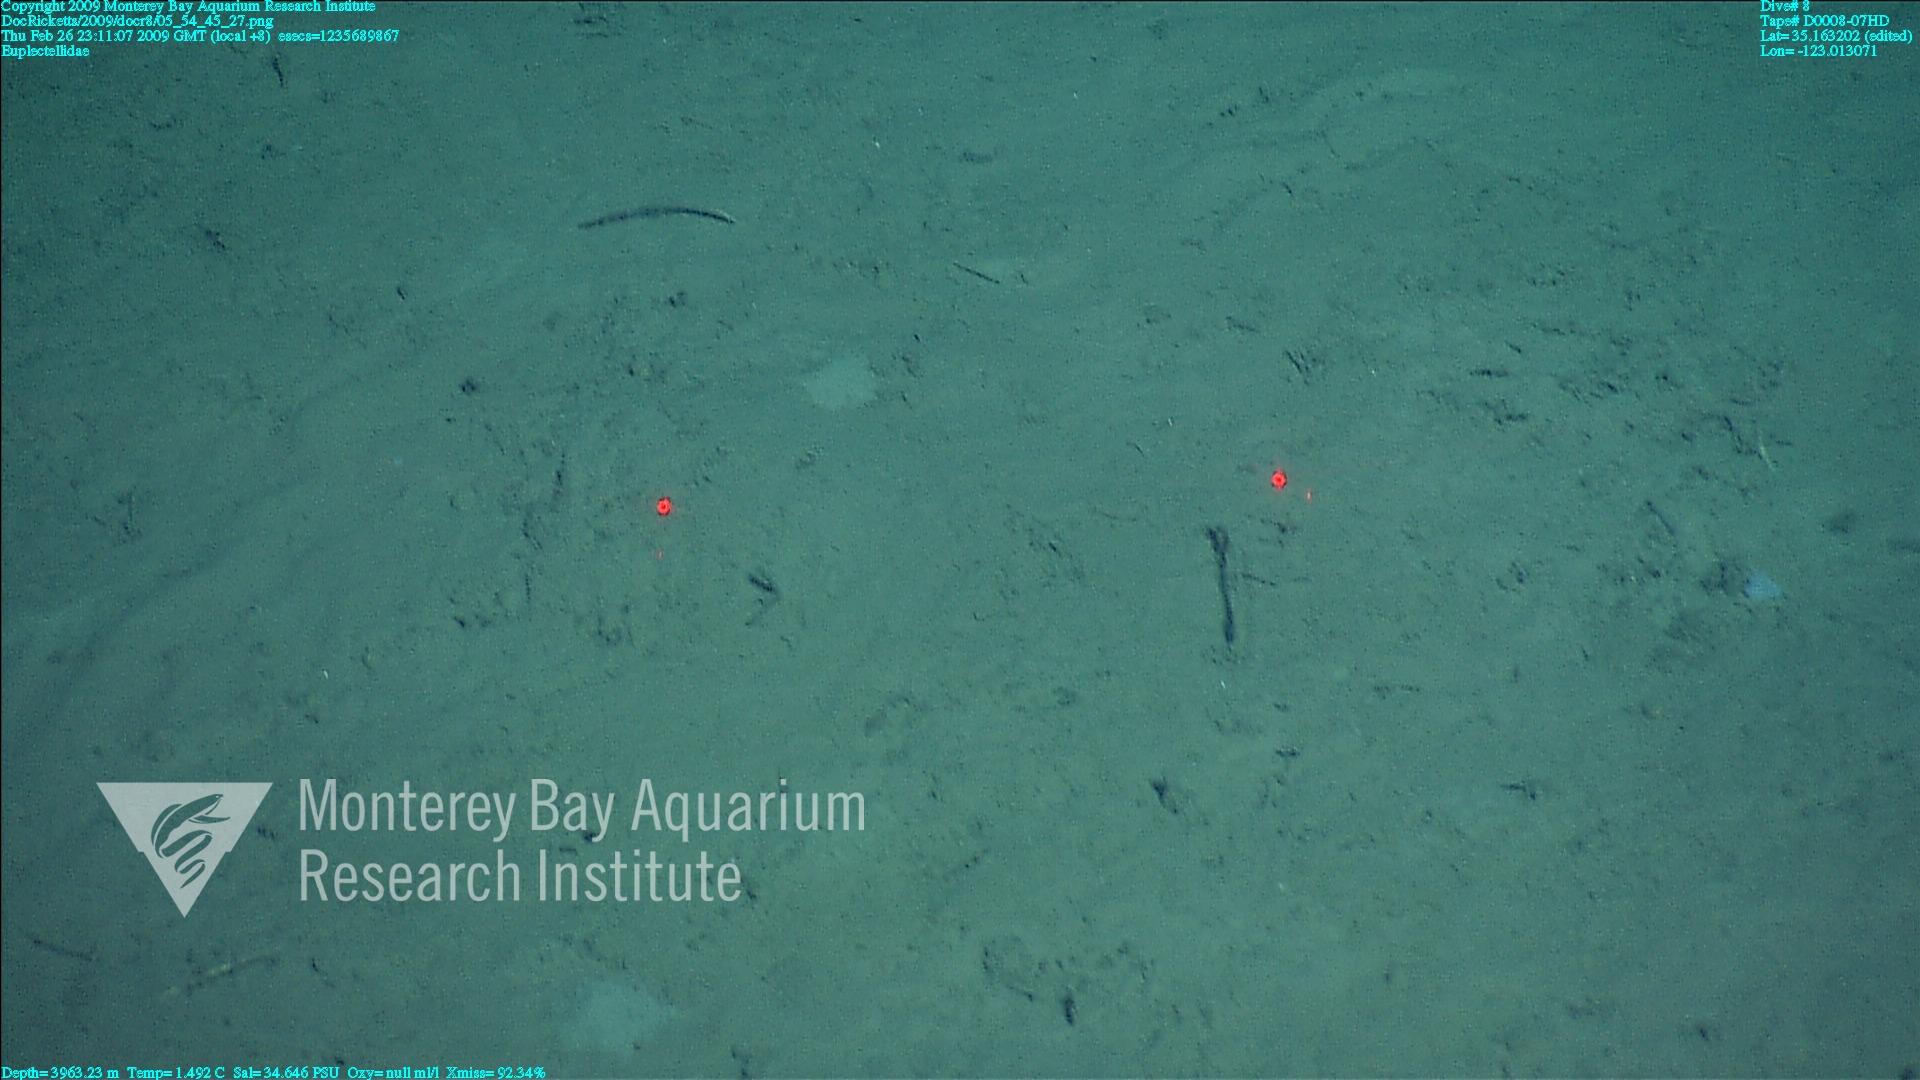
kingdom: Animalia
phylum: Porifera
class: Hexactinellida
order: Lyssacinosida
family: Euplectellidae
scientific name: Euplectellidae
